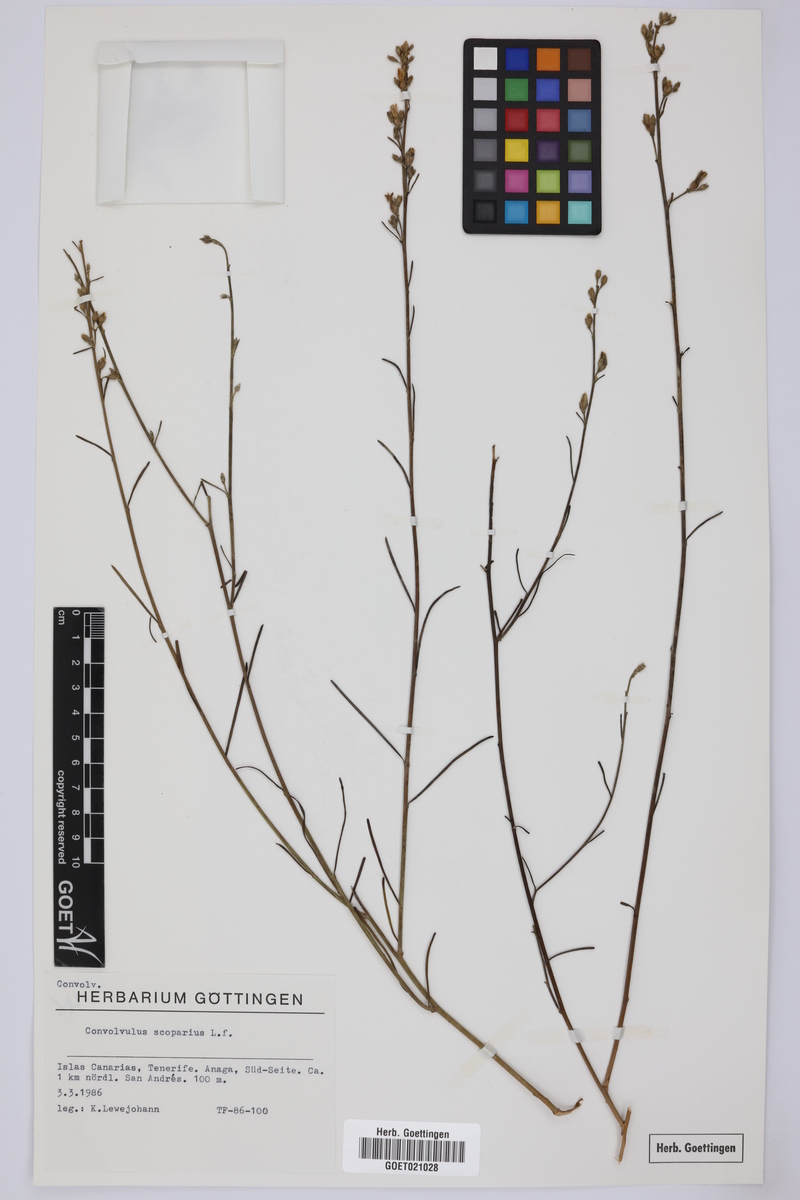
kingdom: Plantae
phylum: Tracheophyta
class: Magnoliopsida
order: Solanales
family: Convolvulaceae
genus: Convolvulus
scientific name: Convolvulus scoparius
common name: Lignum rhodium
